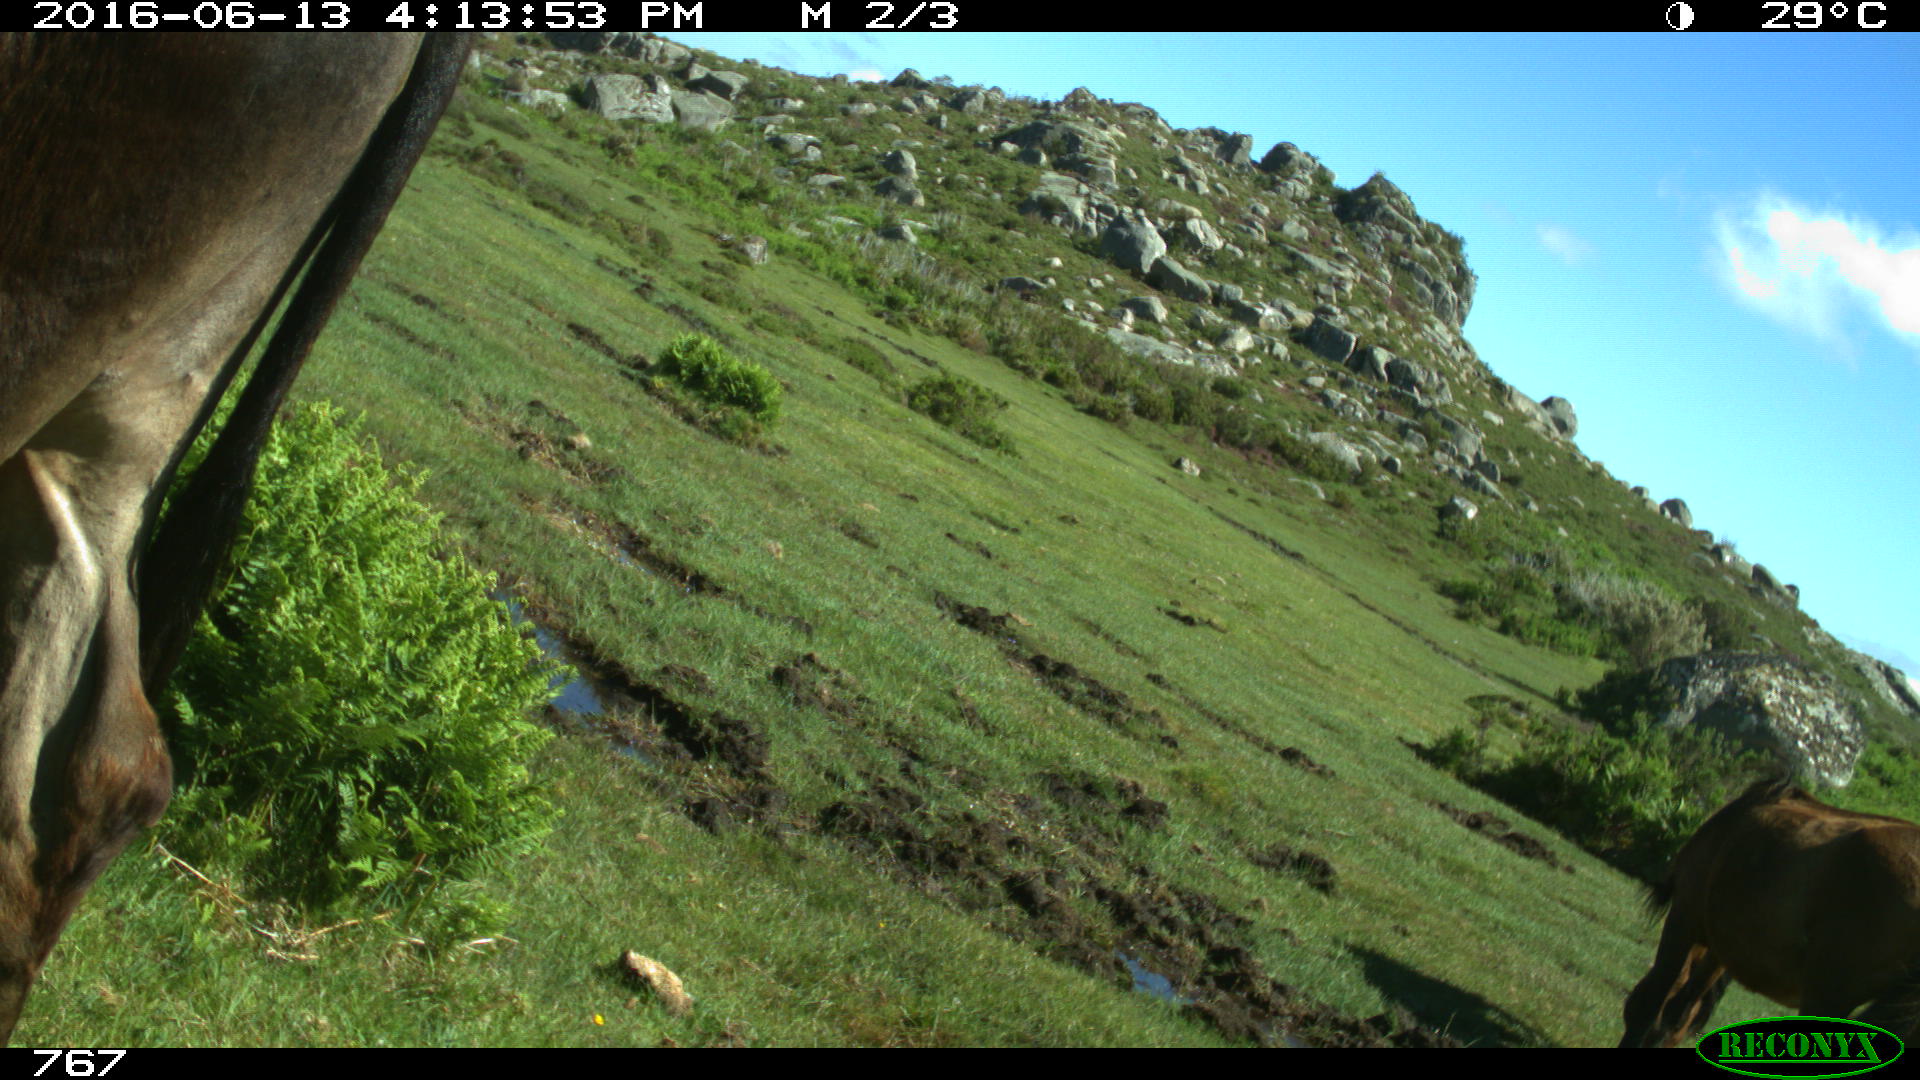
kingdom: Animalia
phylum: Chordata
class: Mammalia
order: Artiodactyla
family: Bovidae
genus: Bos
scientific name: Bos taurus
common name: Domesticated cattle
